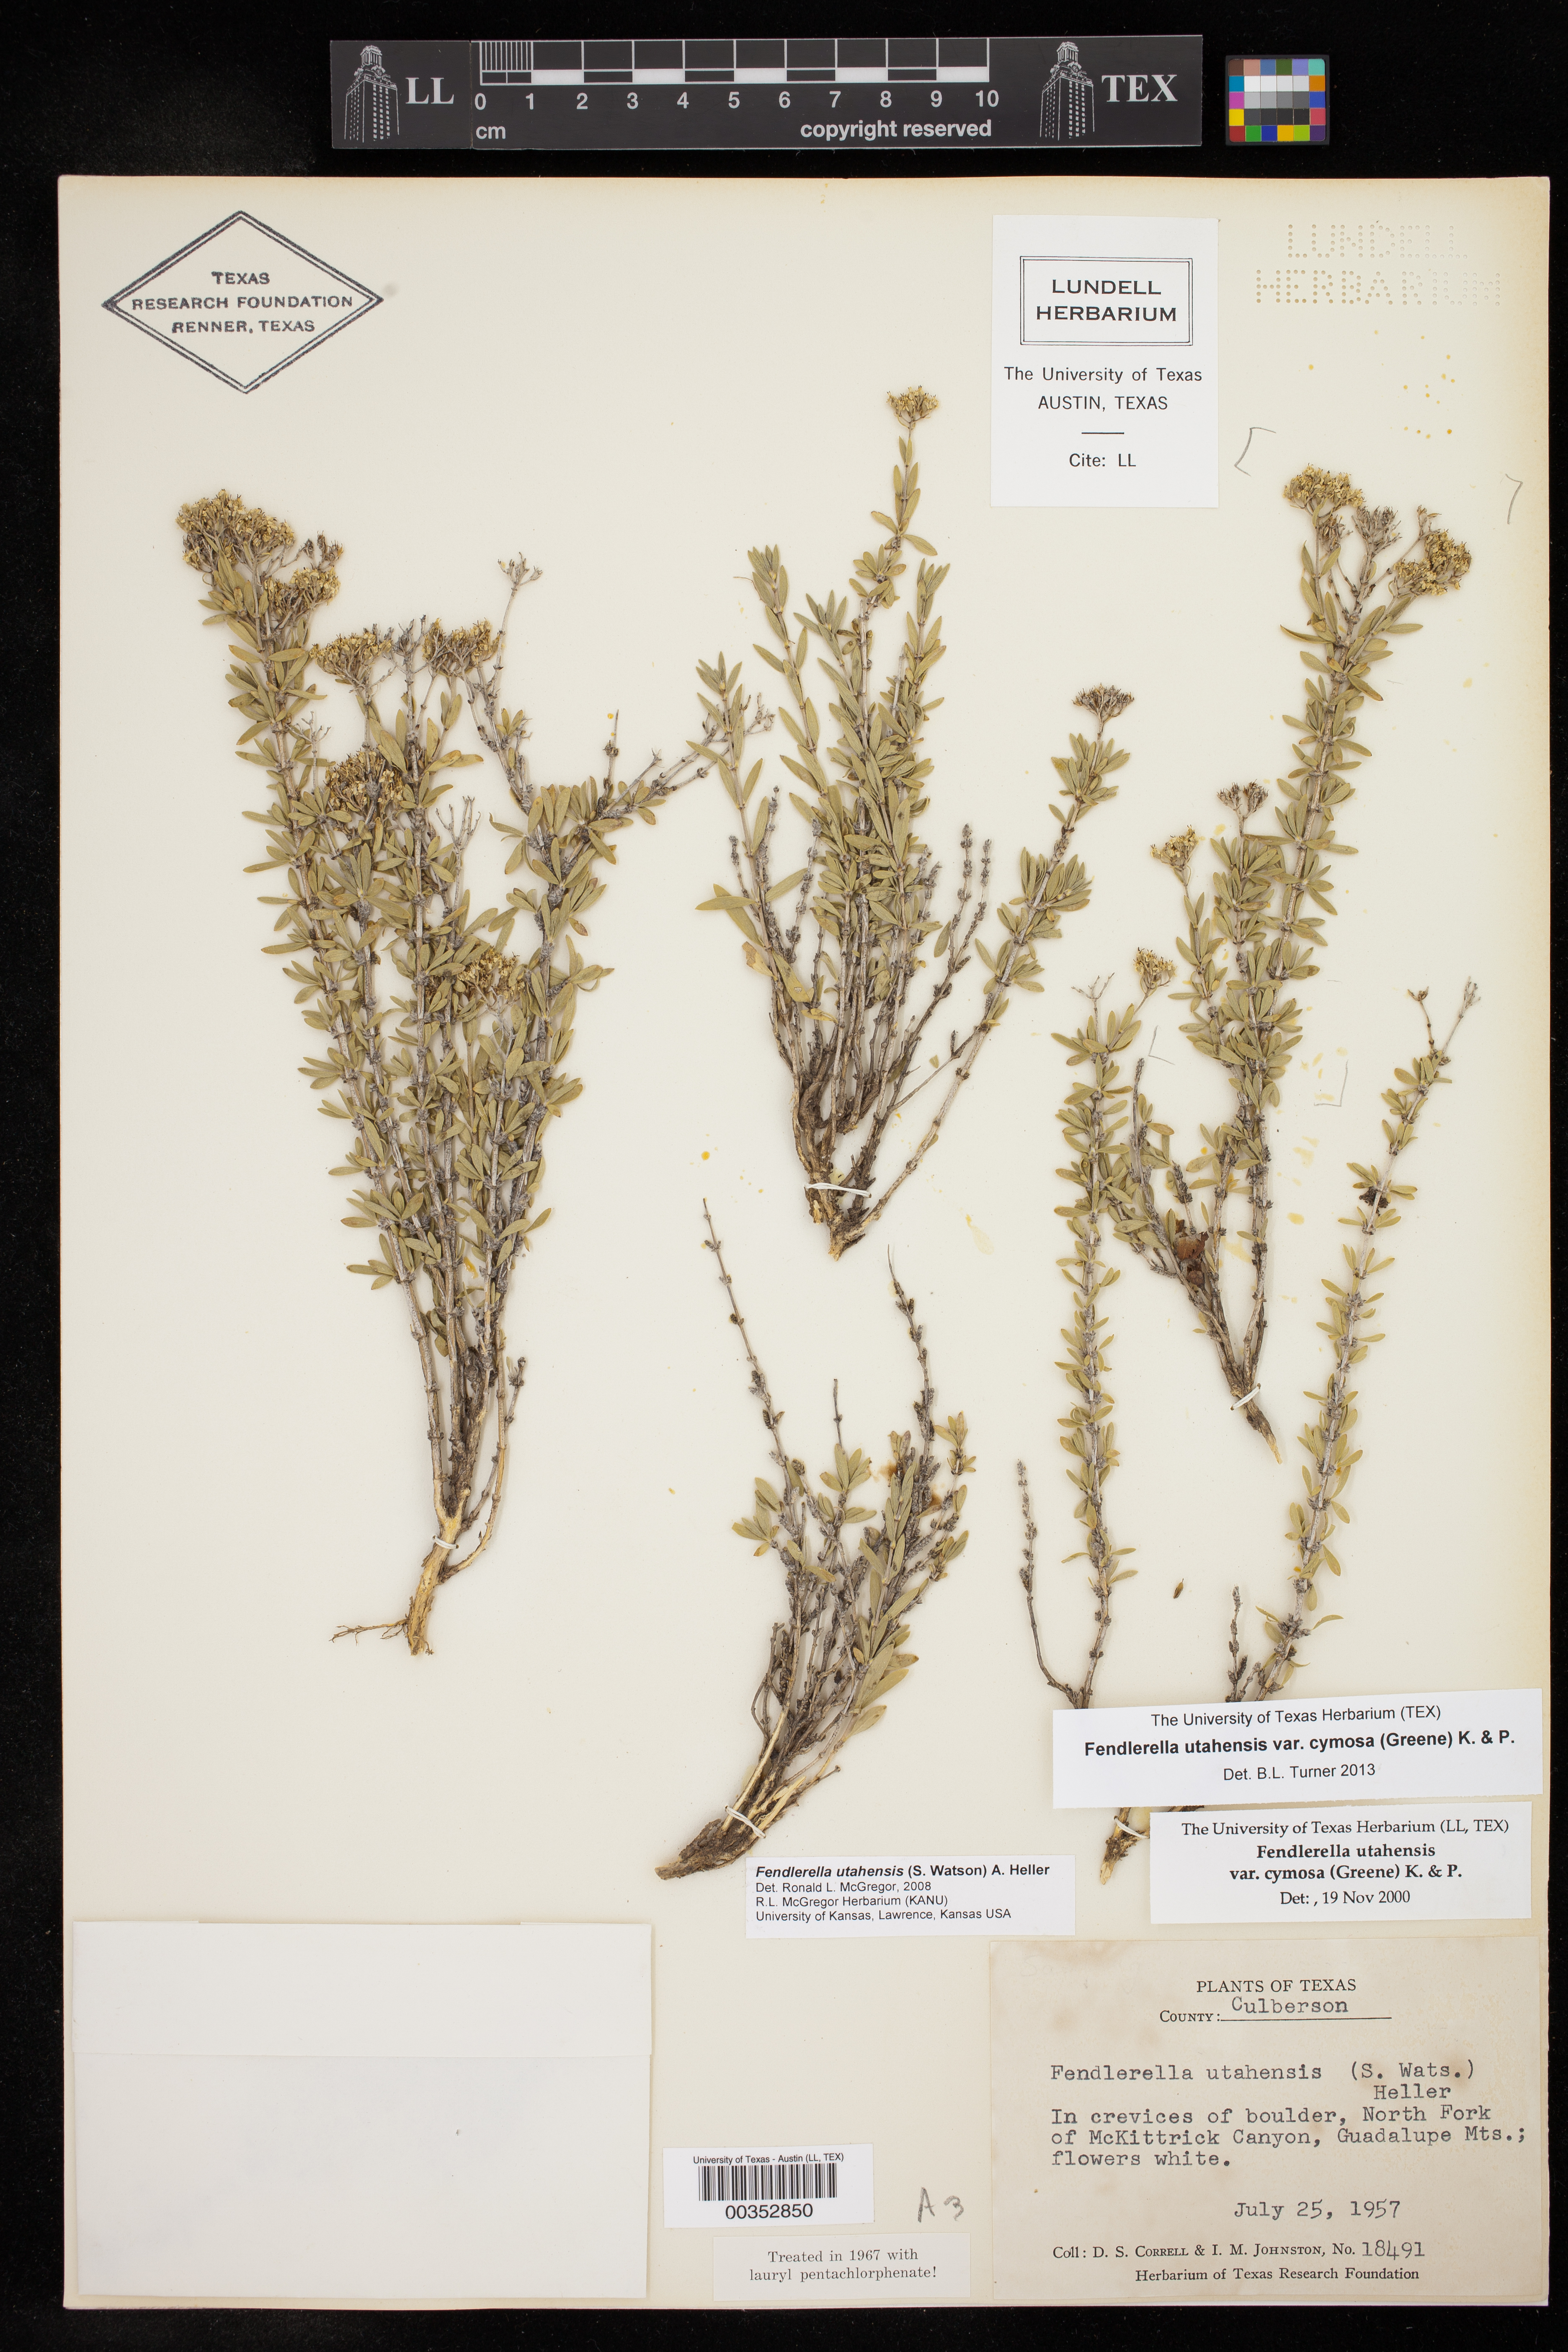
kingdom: Plantae
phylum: Tracheophyta
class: Magnoliopsida
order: Cornales
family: Hydrangeaceae
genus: Fendlerella
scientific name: Fendlerella utahensis
